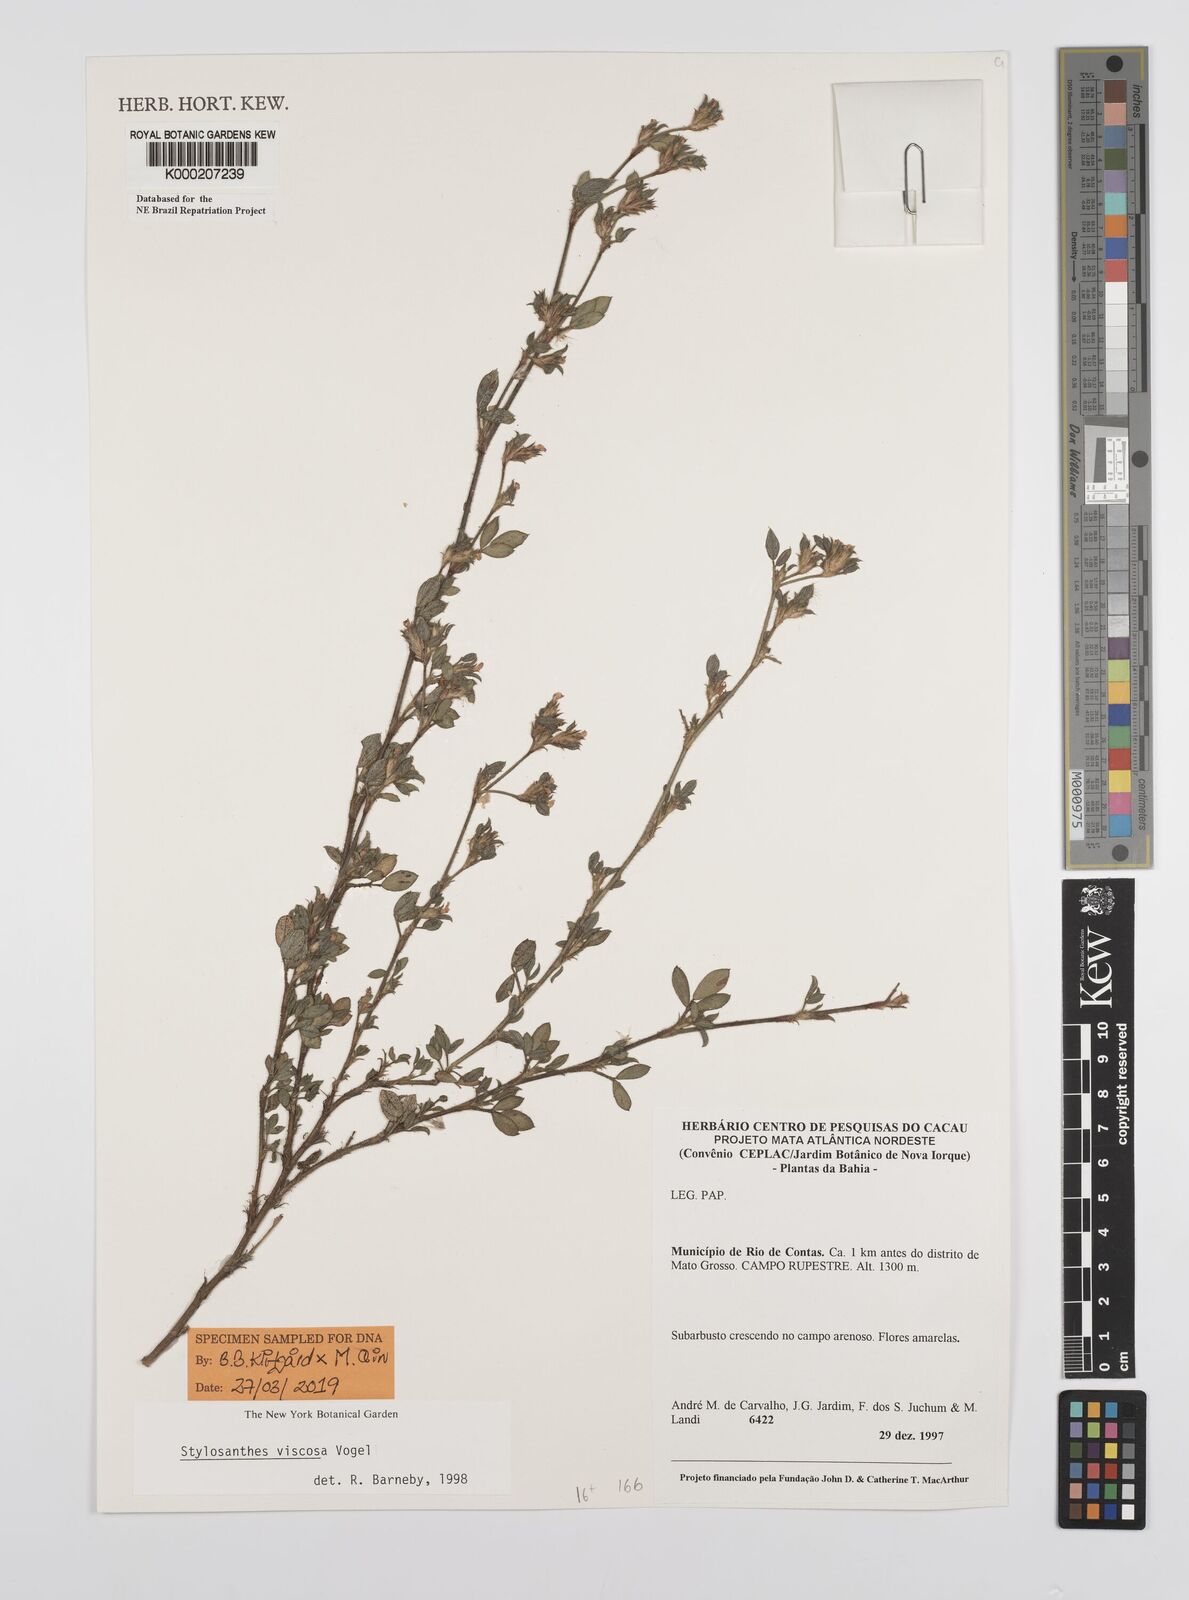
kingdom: Plantae
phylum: Tracheophyta
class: Magnoliopsida
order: Fabales
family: Fabaceae
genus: Stylosanthes
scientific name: Stylosanthes viscosa
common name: Viscid pencil-flower
